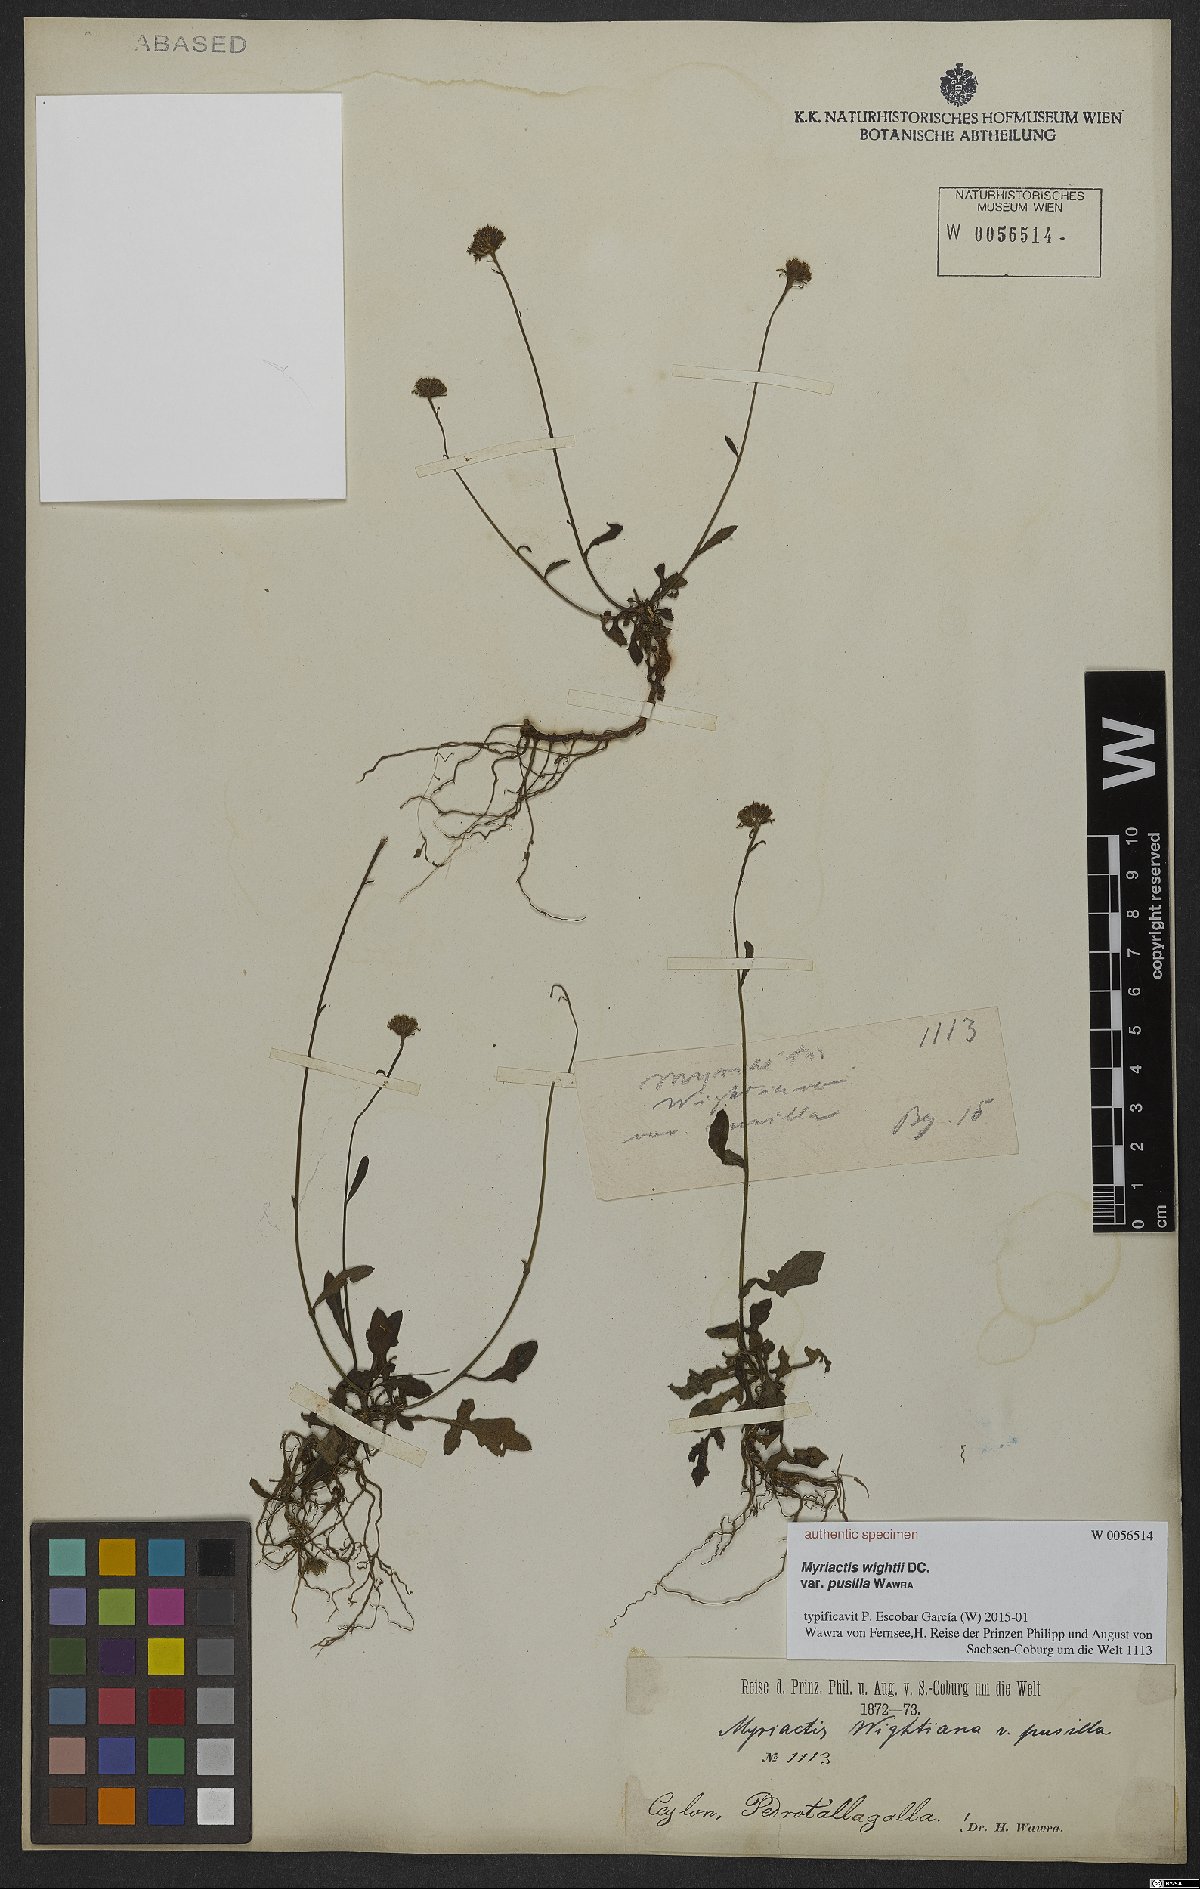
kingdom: Plantae
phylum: Tracheophyta
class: Magnoliopsida
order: Asterales
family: Asteraceae
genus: Myriactis
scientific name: Myriactis wightii
